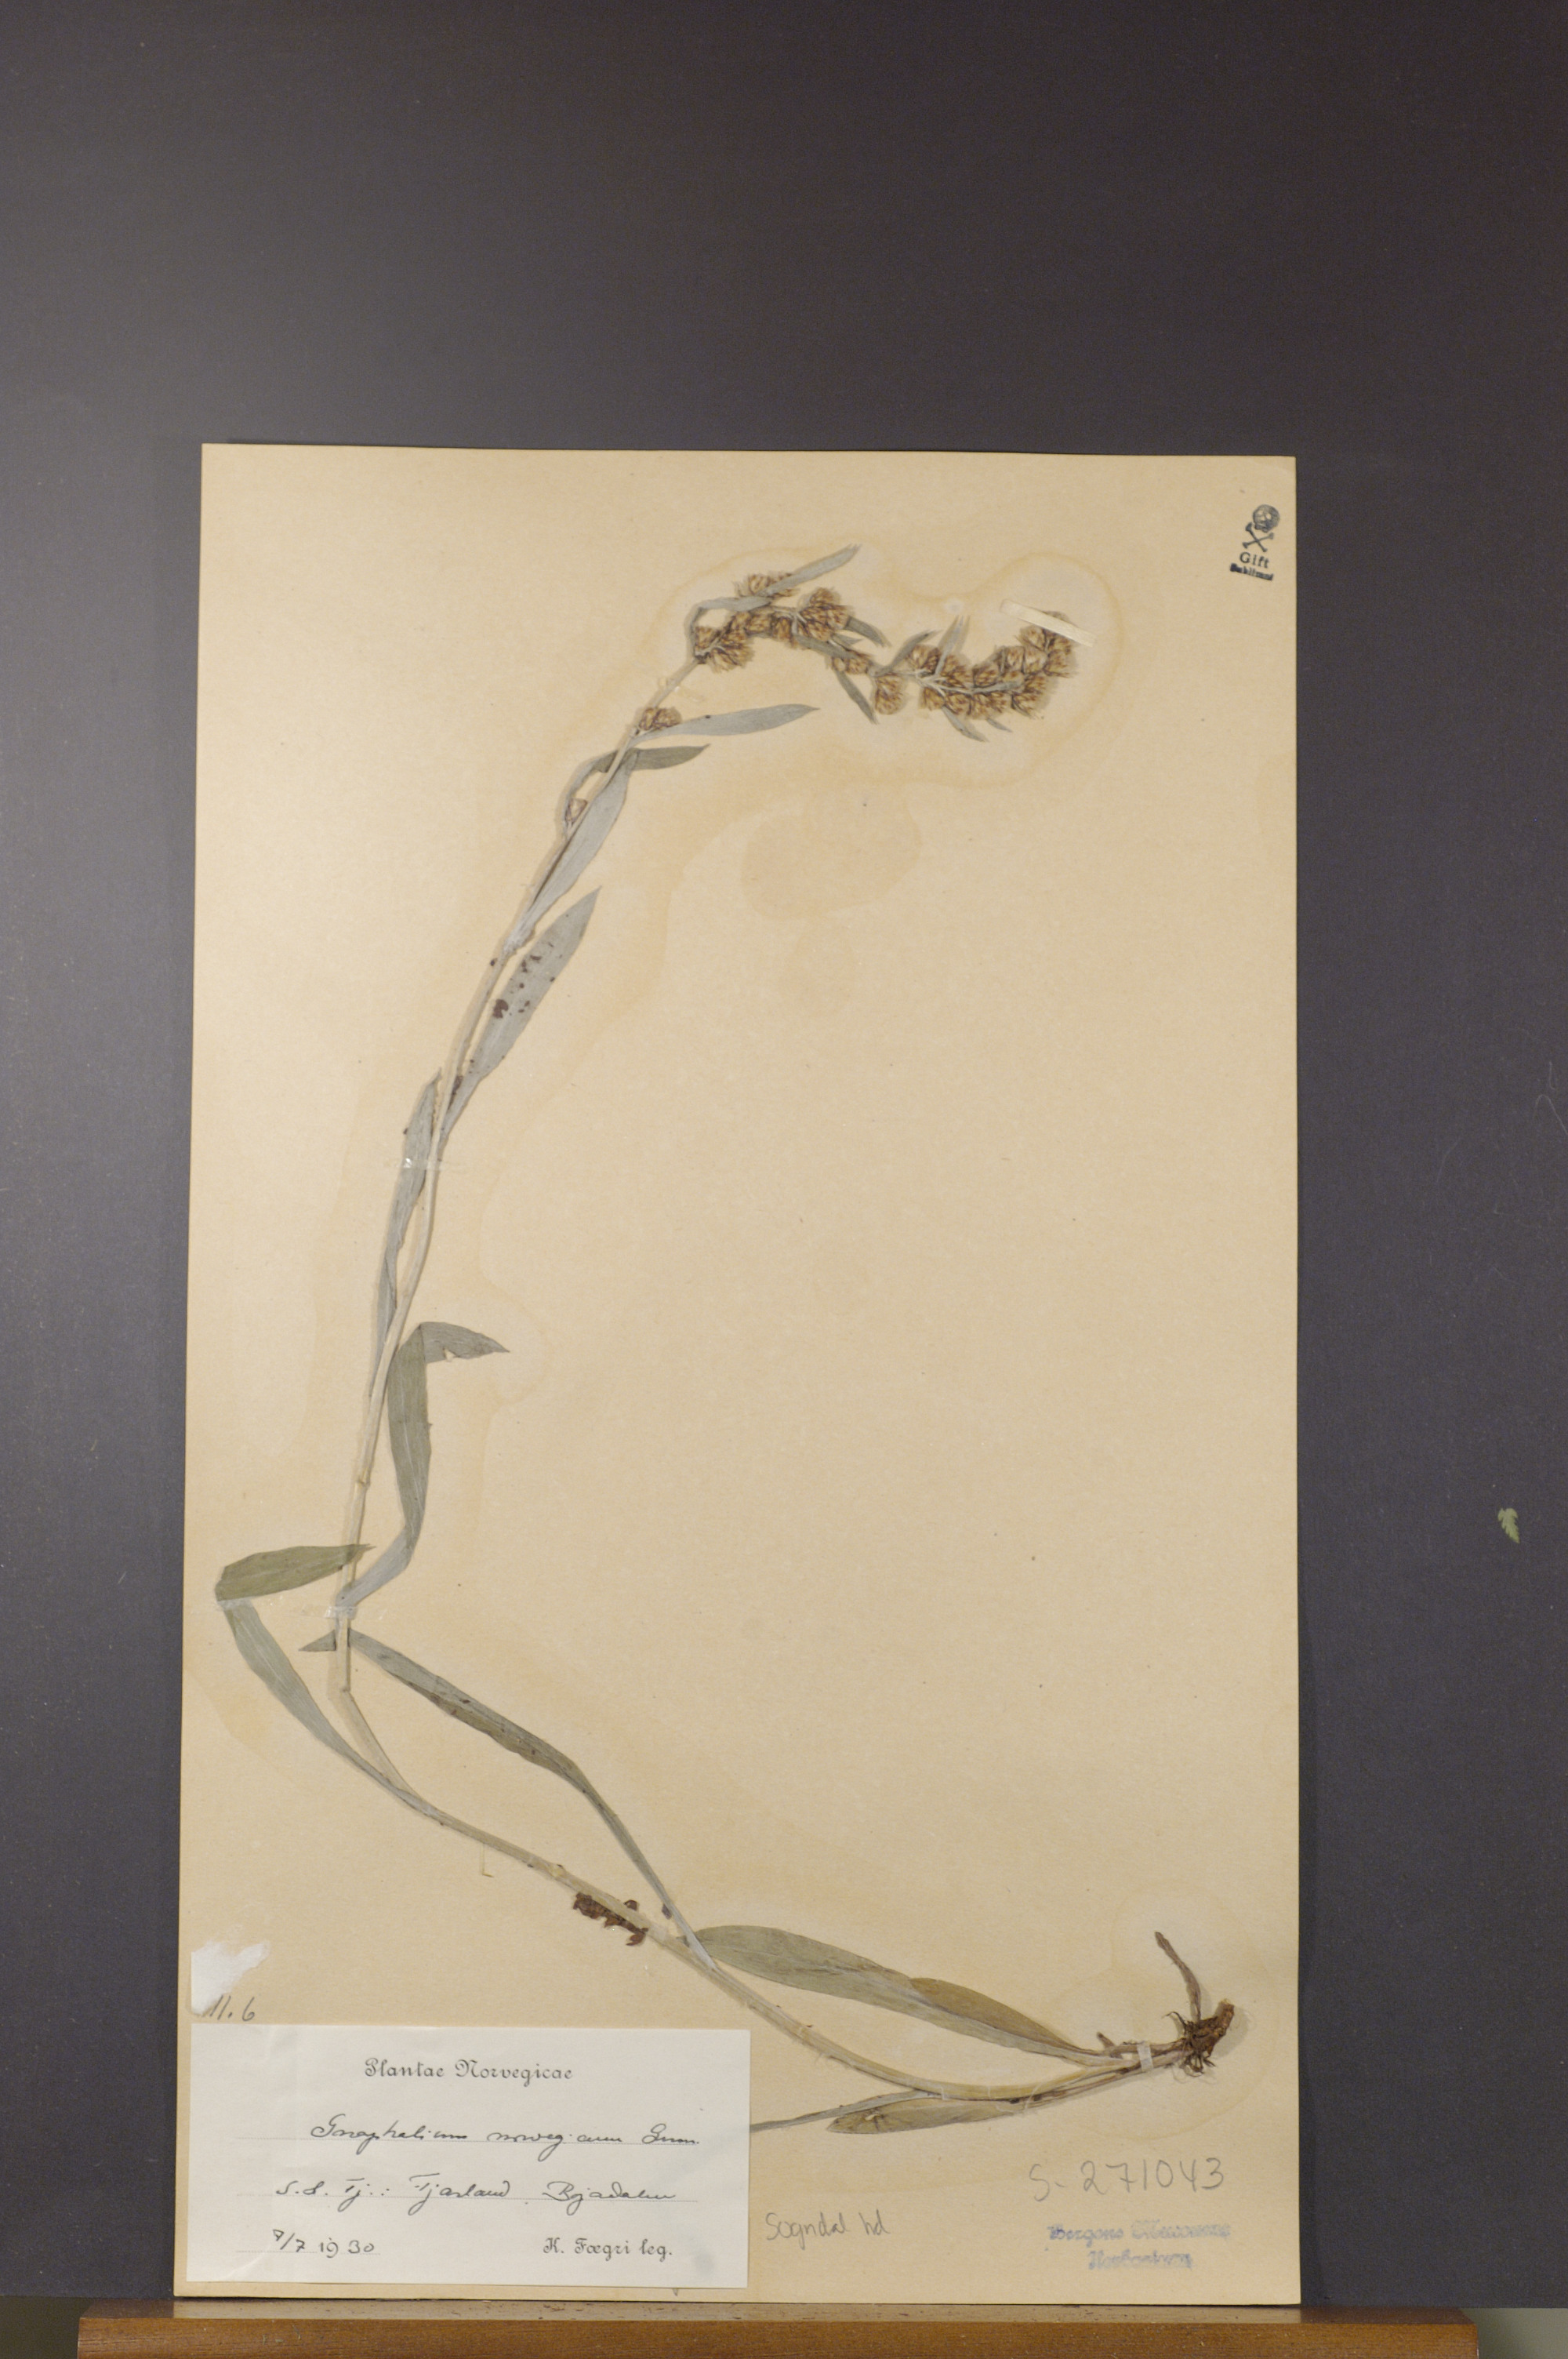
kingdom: Plantae
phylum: Tracheophyta
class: Magnoliopsida
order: Asterales
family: Asteraceae
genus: Omalotheca
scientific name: Omalotheca norvegica
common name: Norwegian arctic-cudweed
